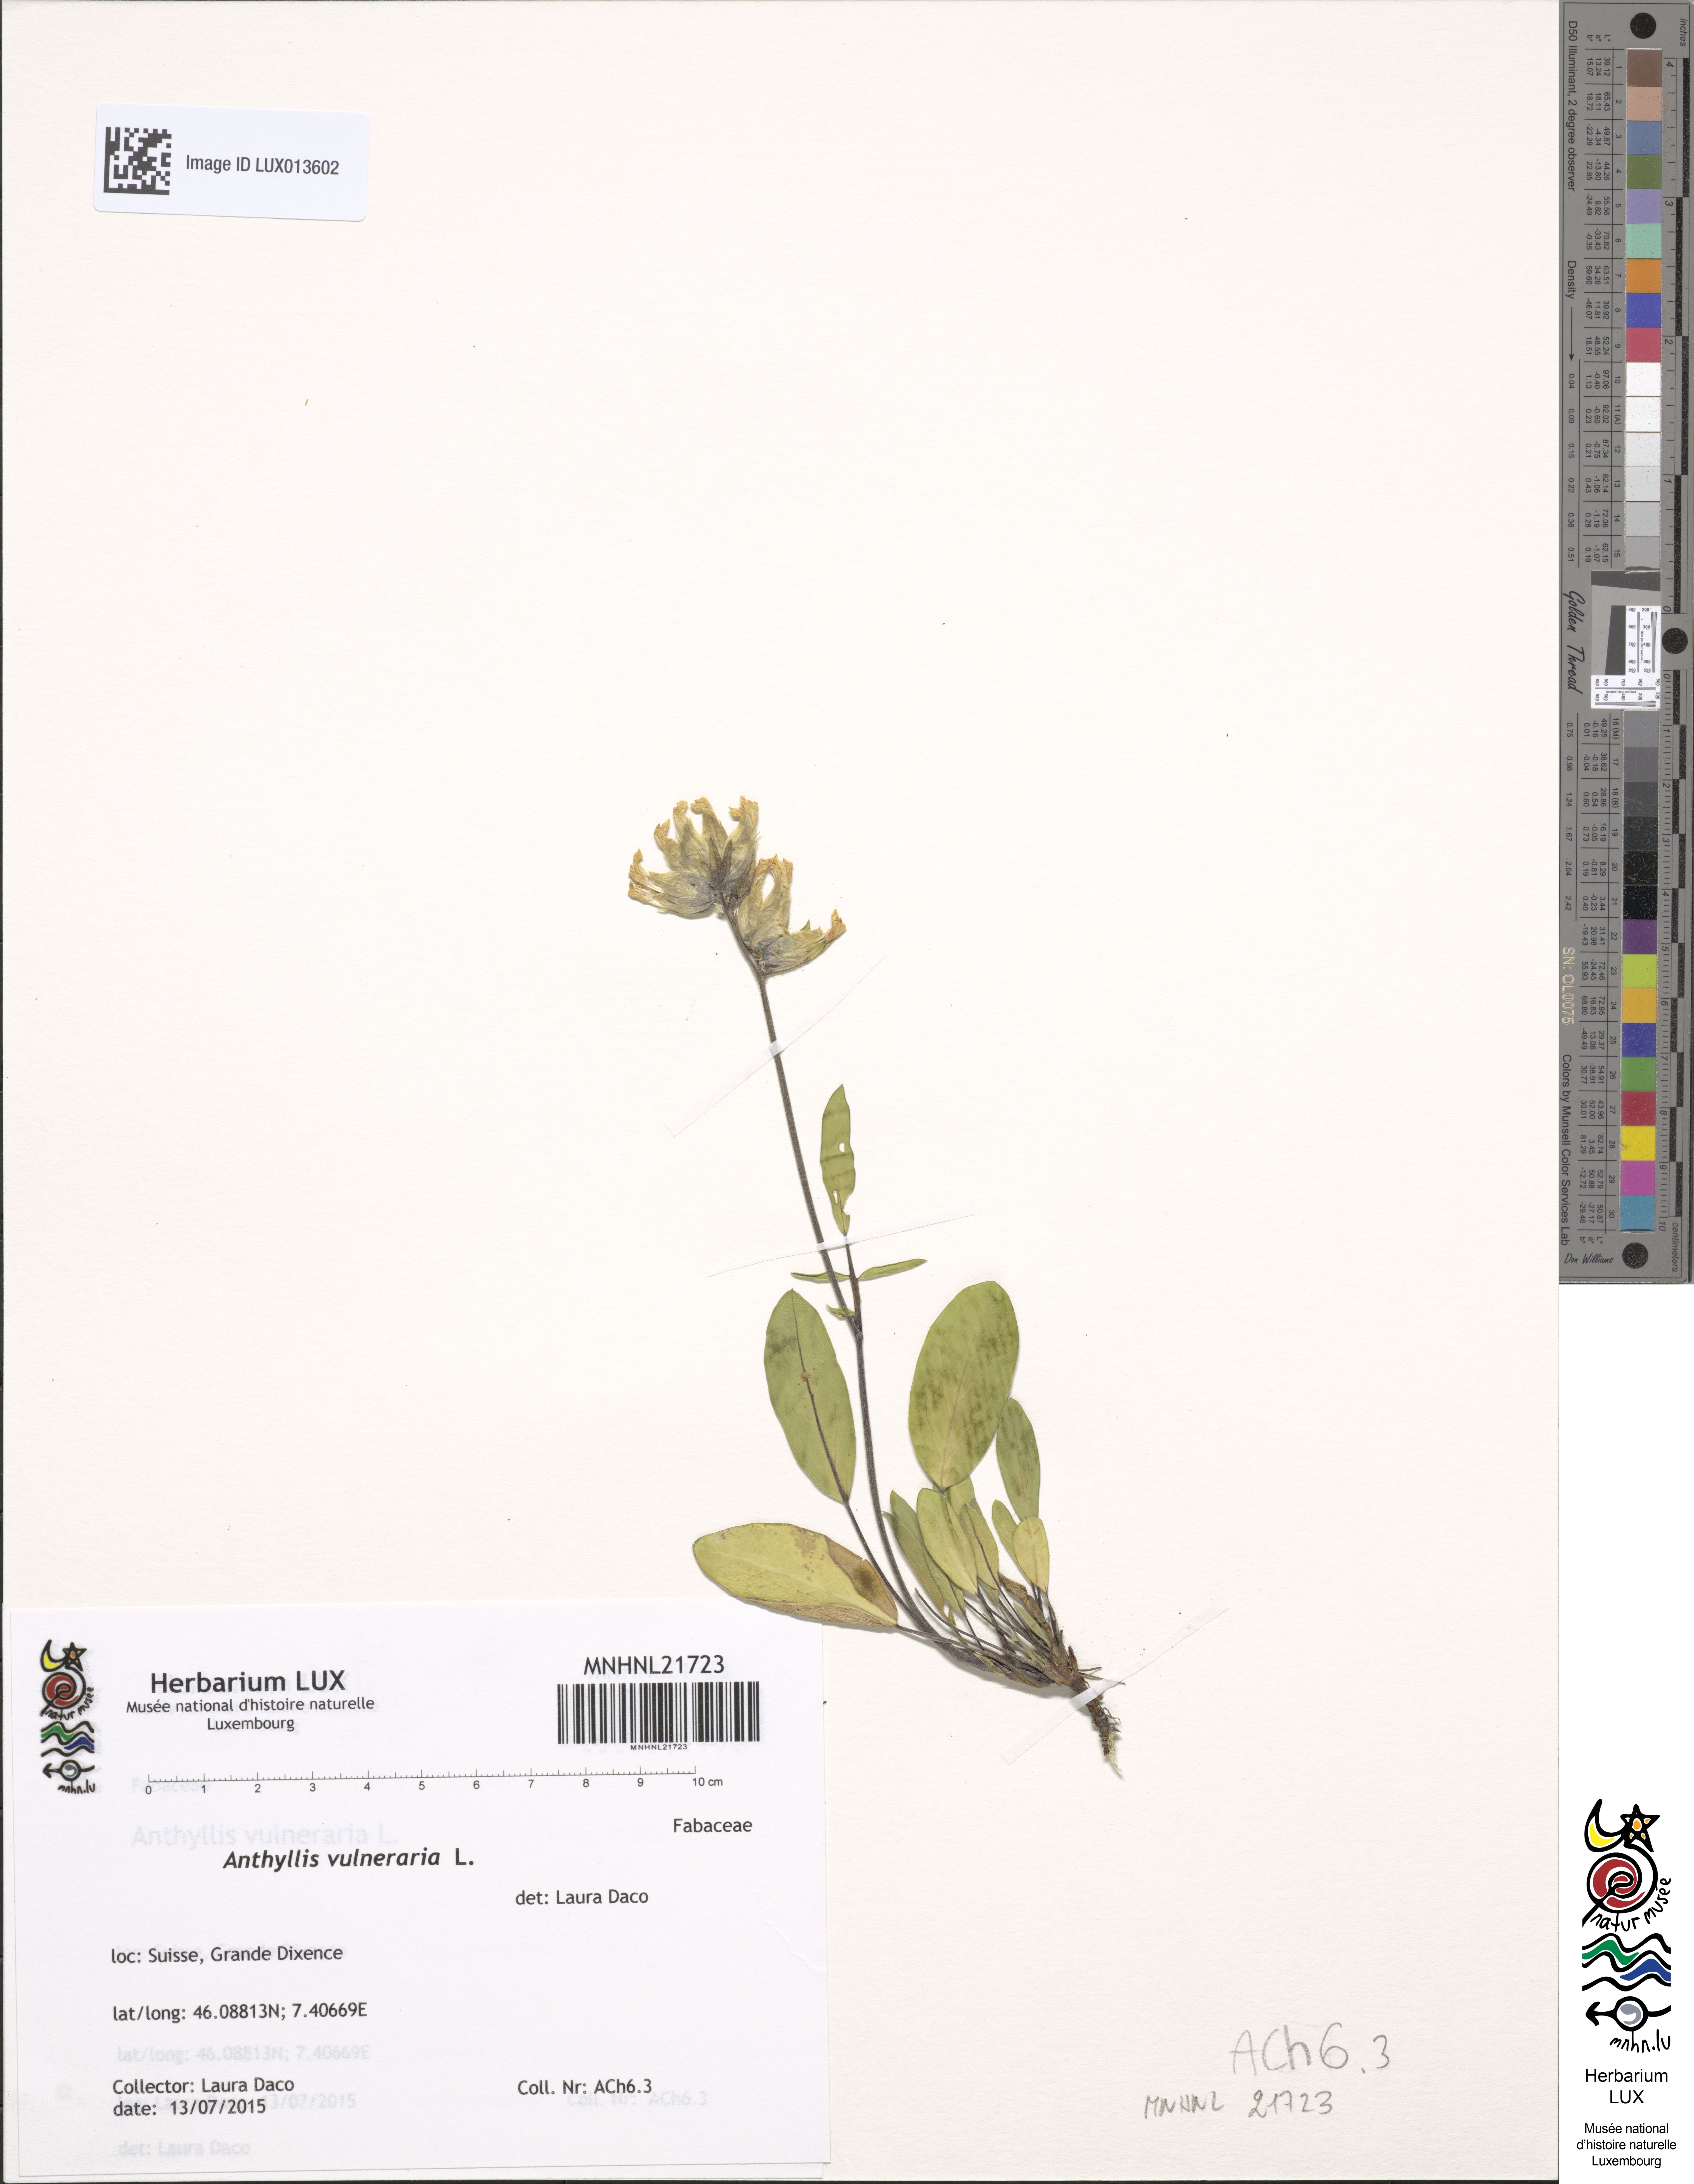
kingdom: Plantae
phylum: Tracheophyta
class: Magnoliopsida
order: Fabales
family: Fabaceae
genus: Anthyllis
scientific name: Anthyllis vulneraria
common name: Kidney vetch
